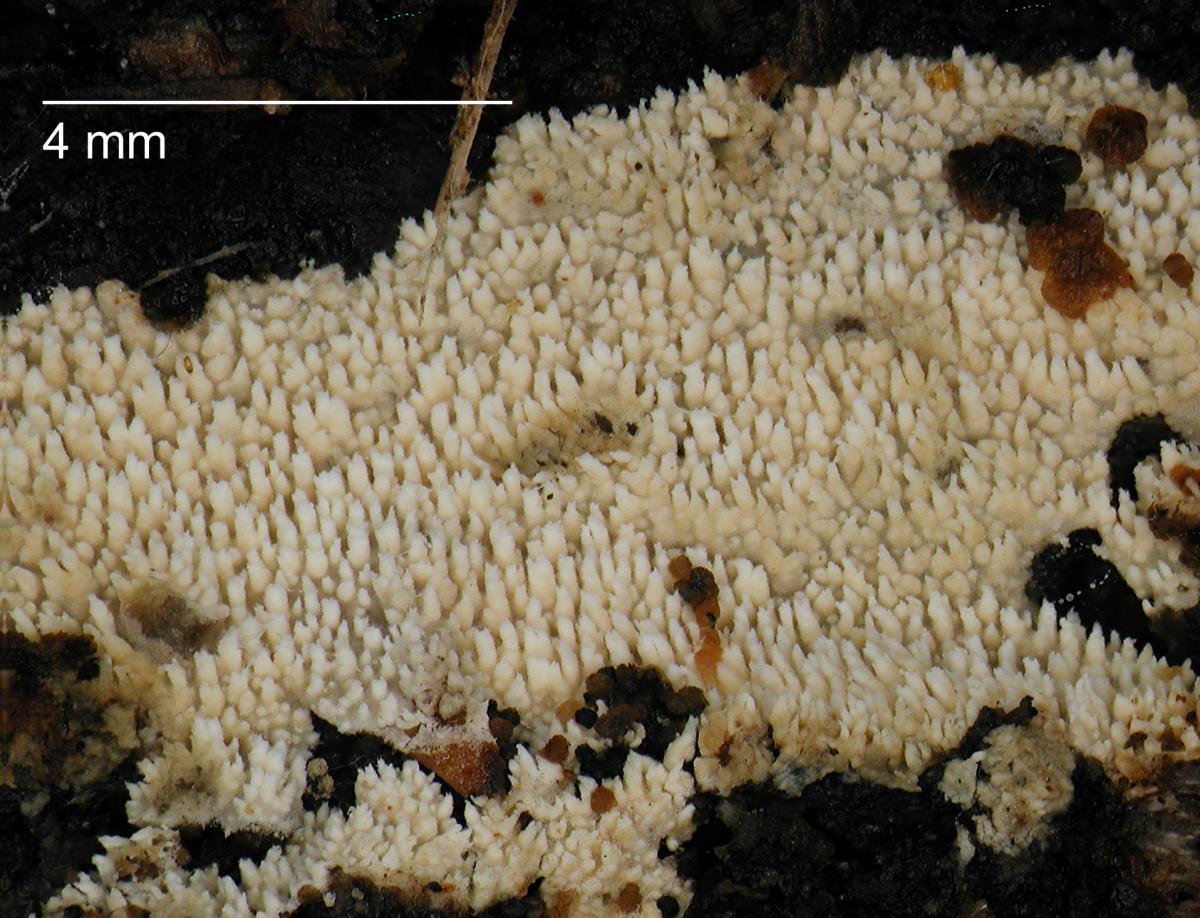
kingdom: Fungi
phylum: Basidiomycota
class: Agaricomycetes
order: Hymenochaetales
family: Schizoporaceae
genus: Xylodon
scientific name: Xylodon raduloides
